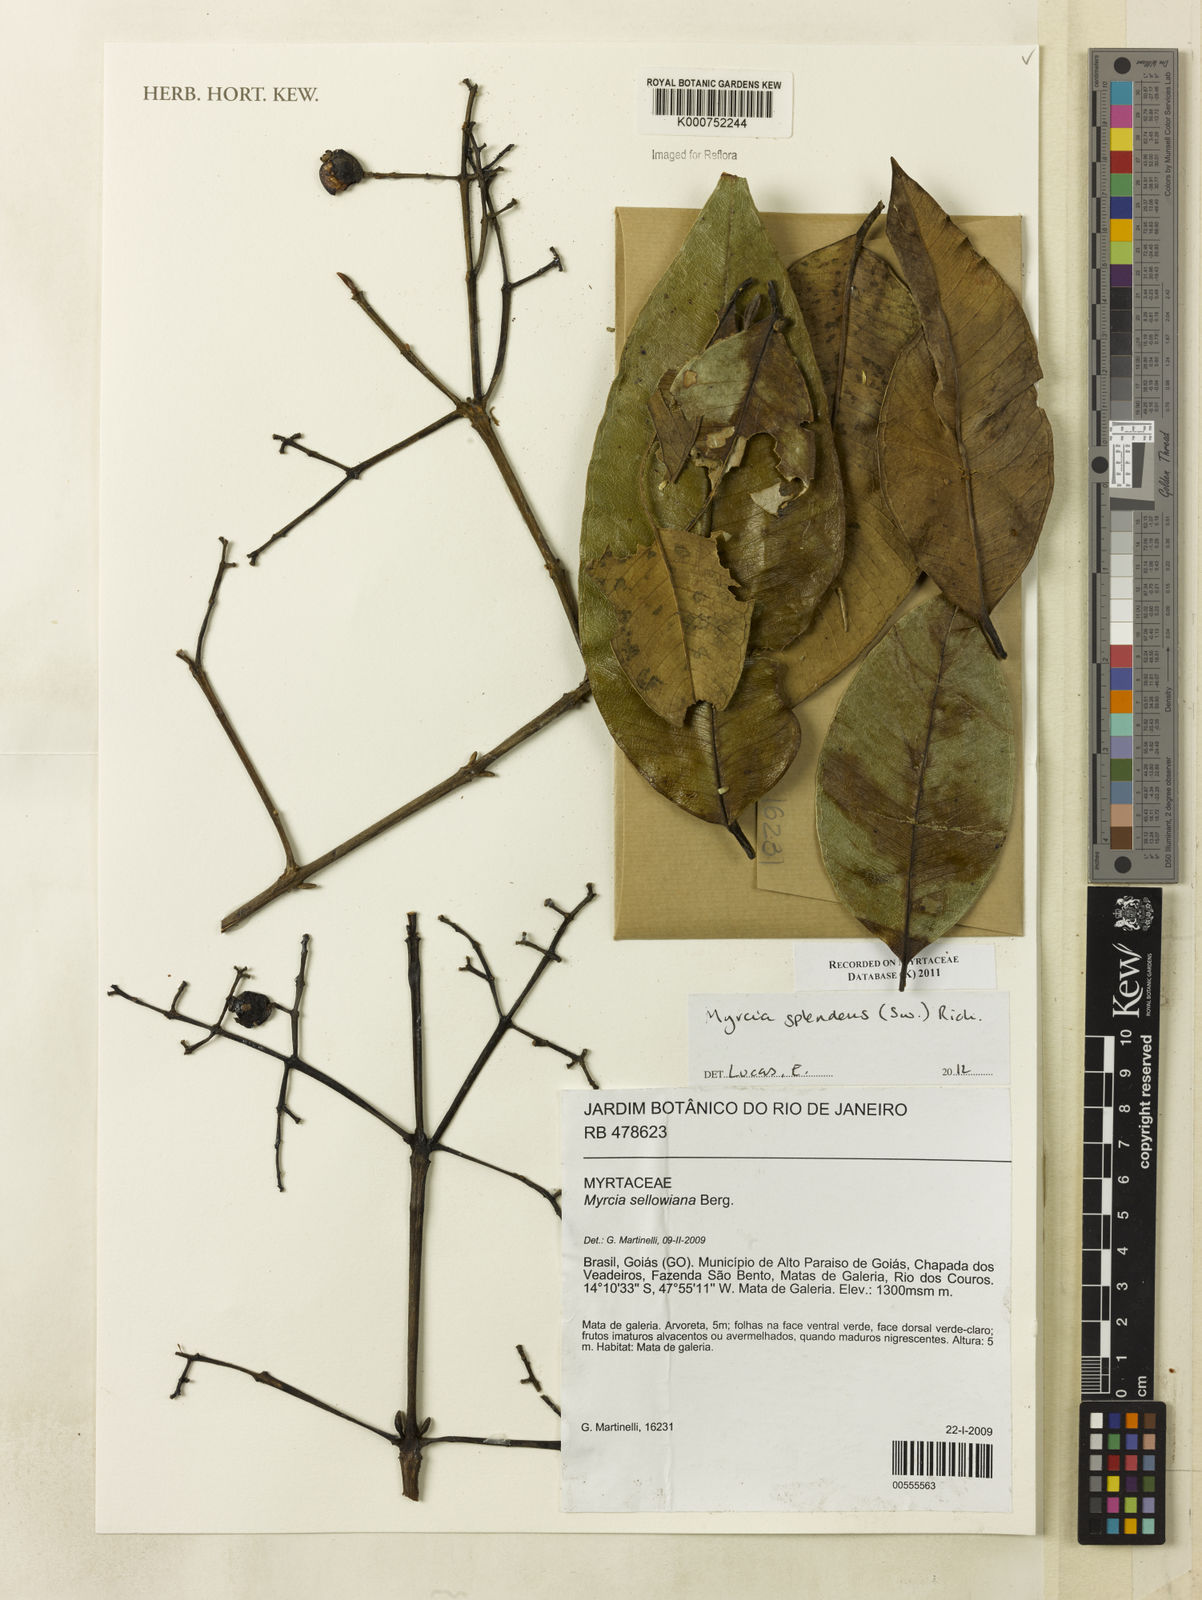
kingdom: Plantae
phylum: Tracheophyta
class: Magnoliopsida
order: Myrtales
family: Myrtaceae
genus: Myrcia
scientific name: Myrcia splendens
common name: Surinam cherry
